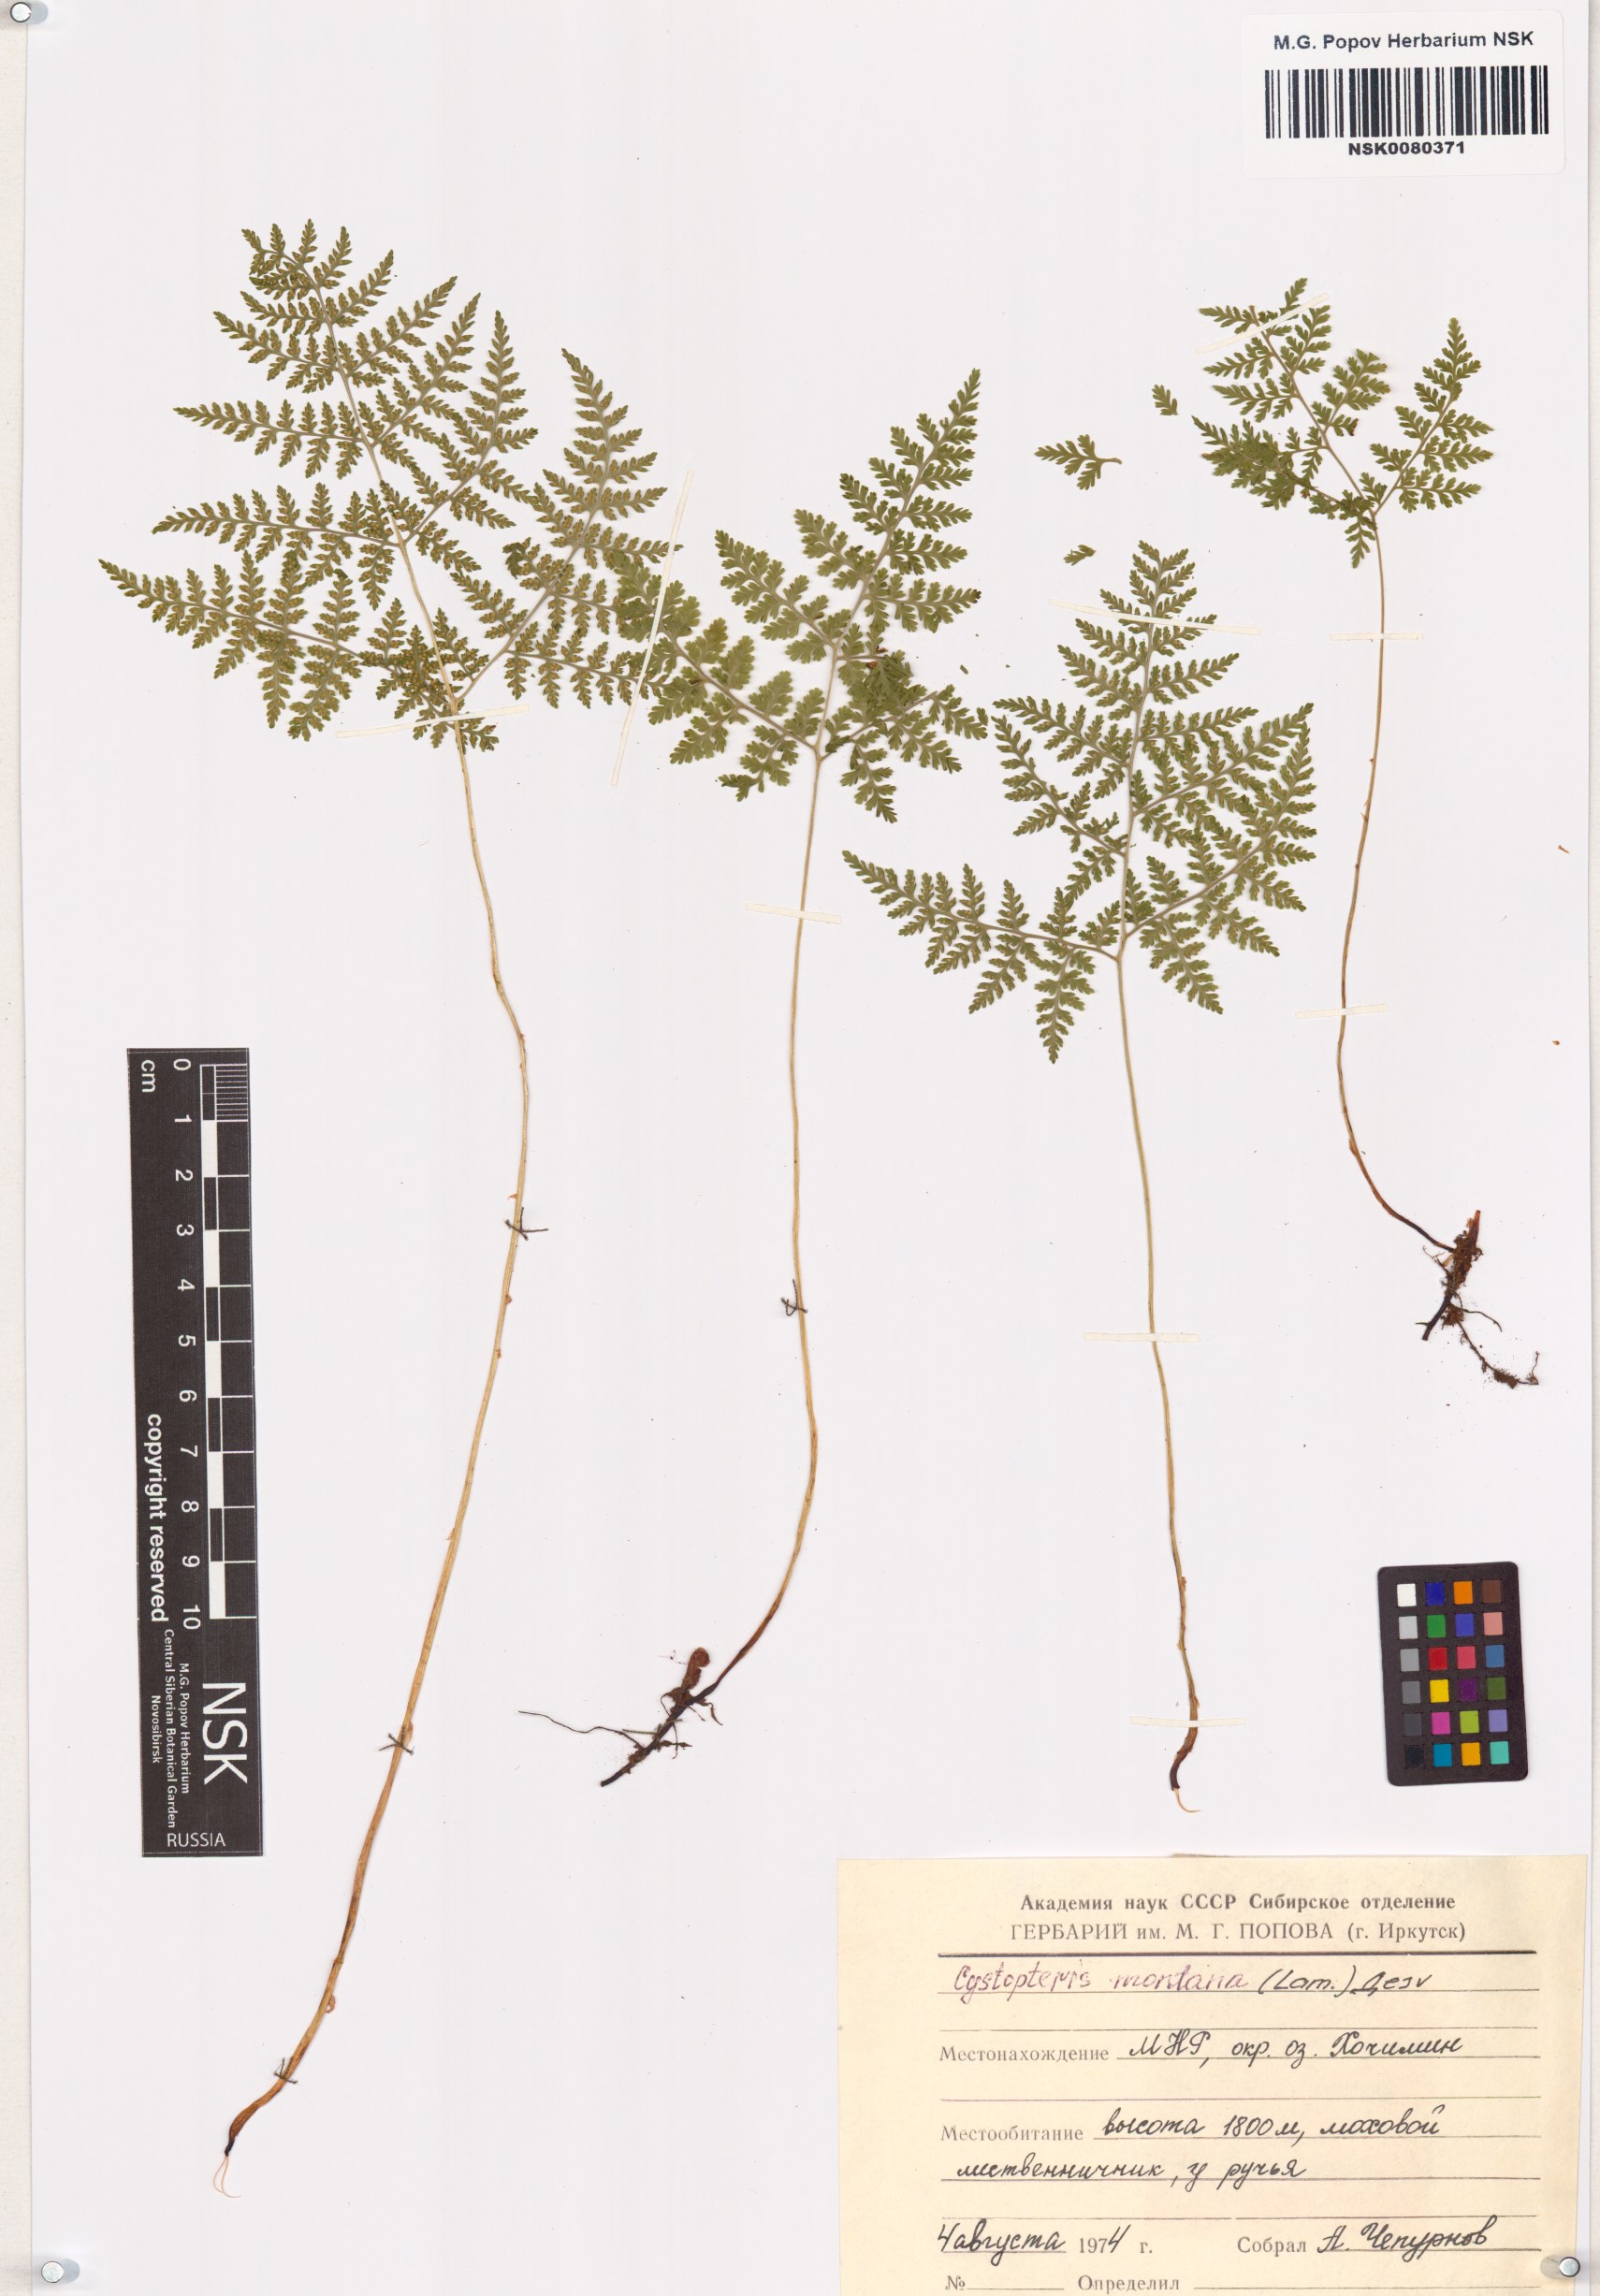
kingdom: Plantae
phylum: Tracheophyta
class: Polypodiopsida
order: Polypodiales
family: Cystopteridaceae
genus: Cystopteris
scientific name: Cystopteris montana
